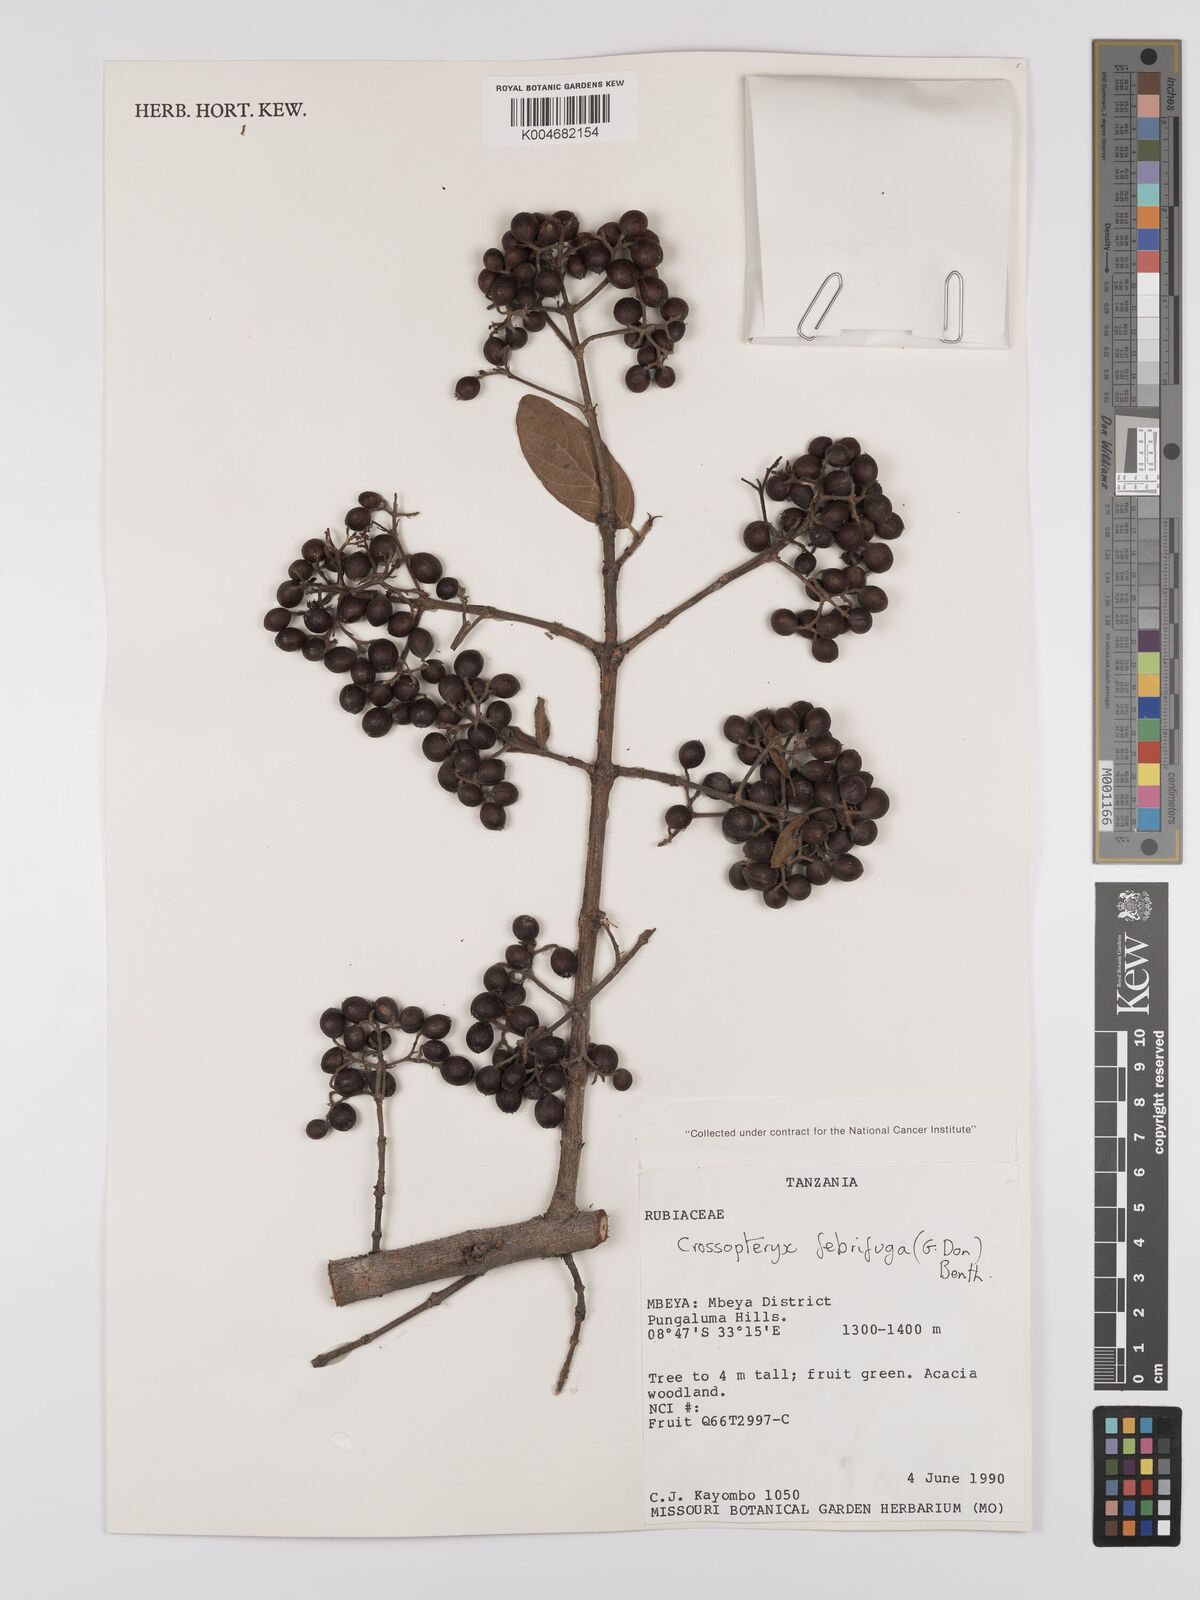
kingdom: Plantae
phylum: Tracheophyta
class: Magnoliopsida
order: Gentianales
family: Rubiaceae
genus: Crossopteryx
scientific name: Crossopteryx febrifuga
